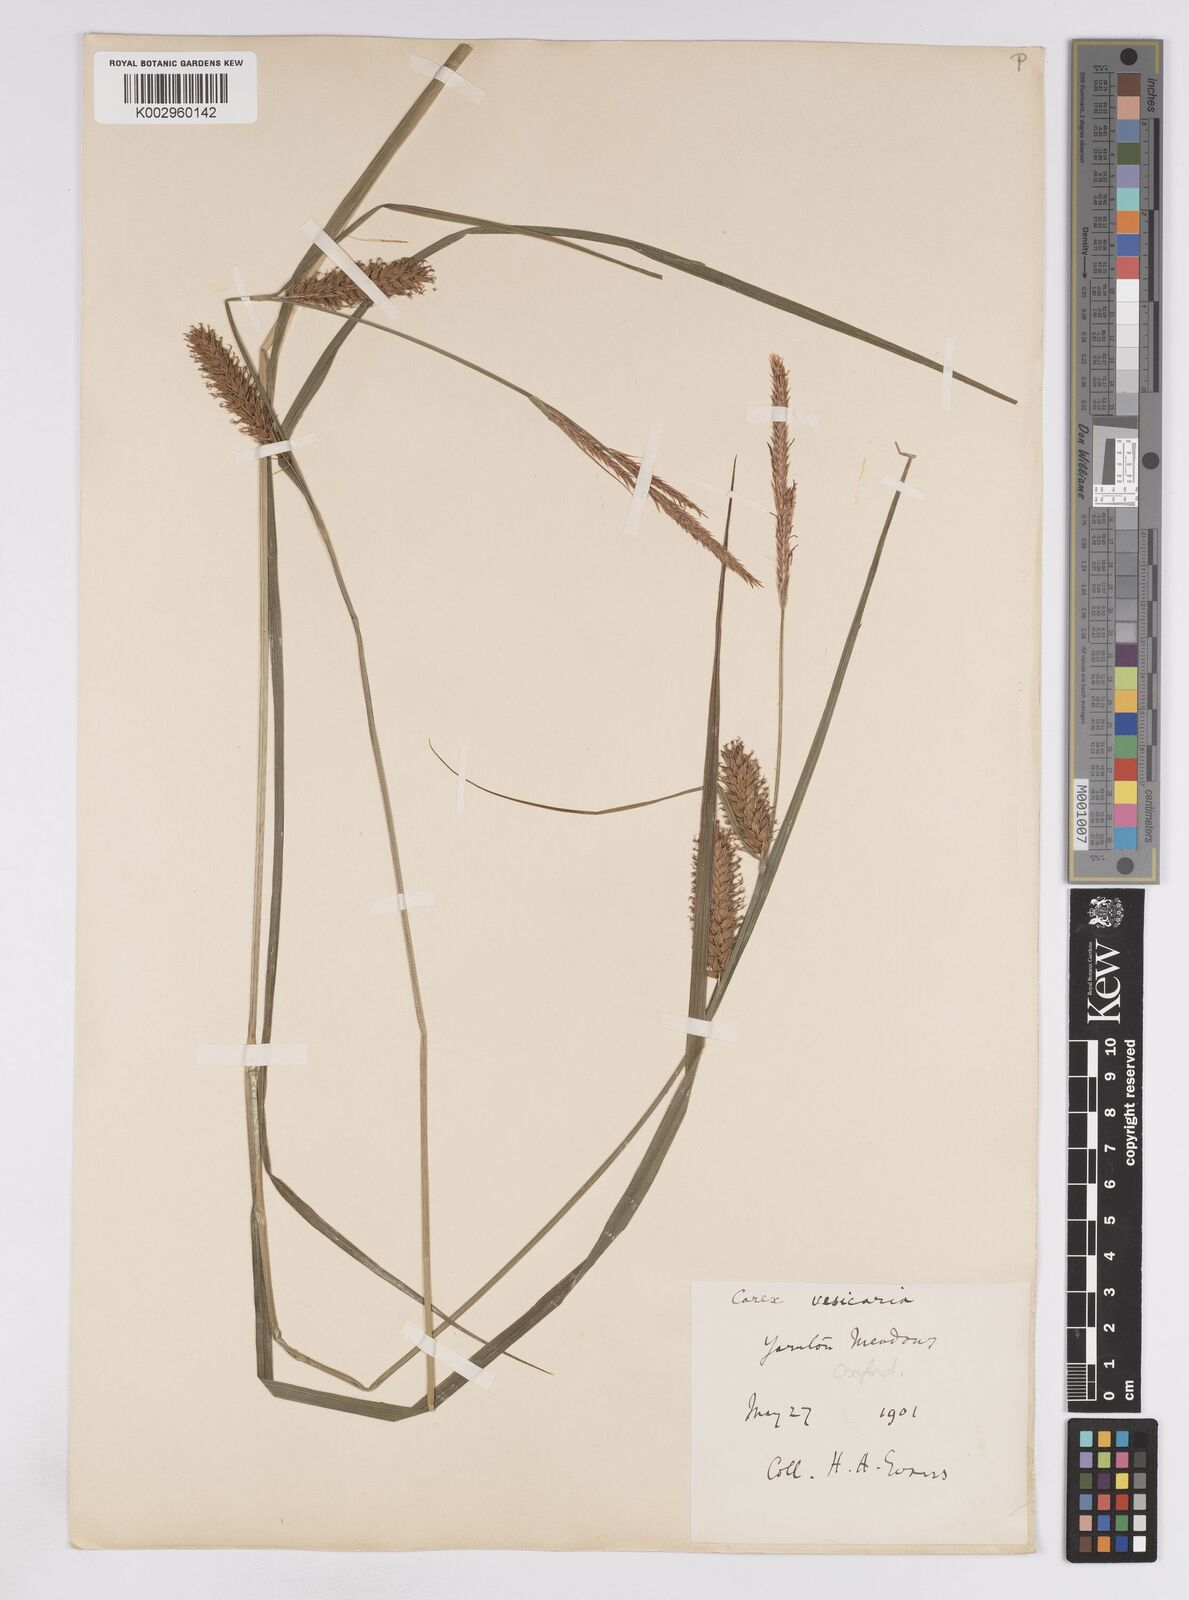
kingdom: Plantae
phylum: Tracheophyta
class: Liliopsida
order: Poales
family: Cyperaceae
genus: Carex
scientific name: Carex vesicaria
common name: Bladder-sedge
